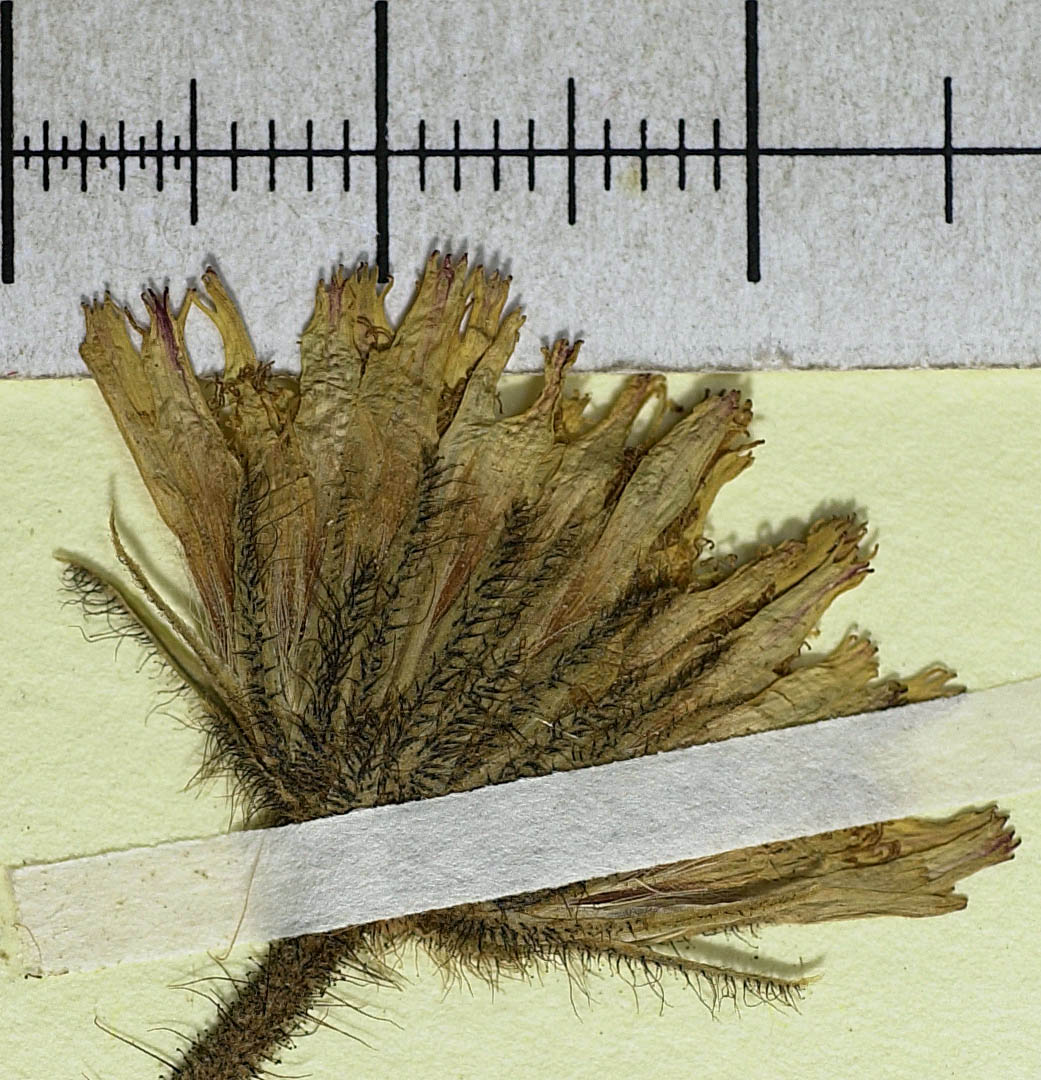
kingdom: Plantae
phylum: Tracheophyta
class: Magnoliopsida
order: Asterales
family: Asteraceae
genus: Pilosella
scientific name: Pilosella officinarum
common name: Mouse-ear hawkweed
